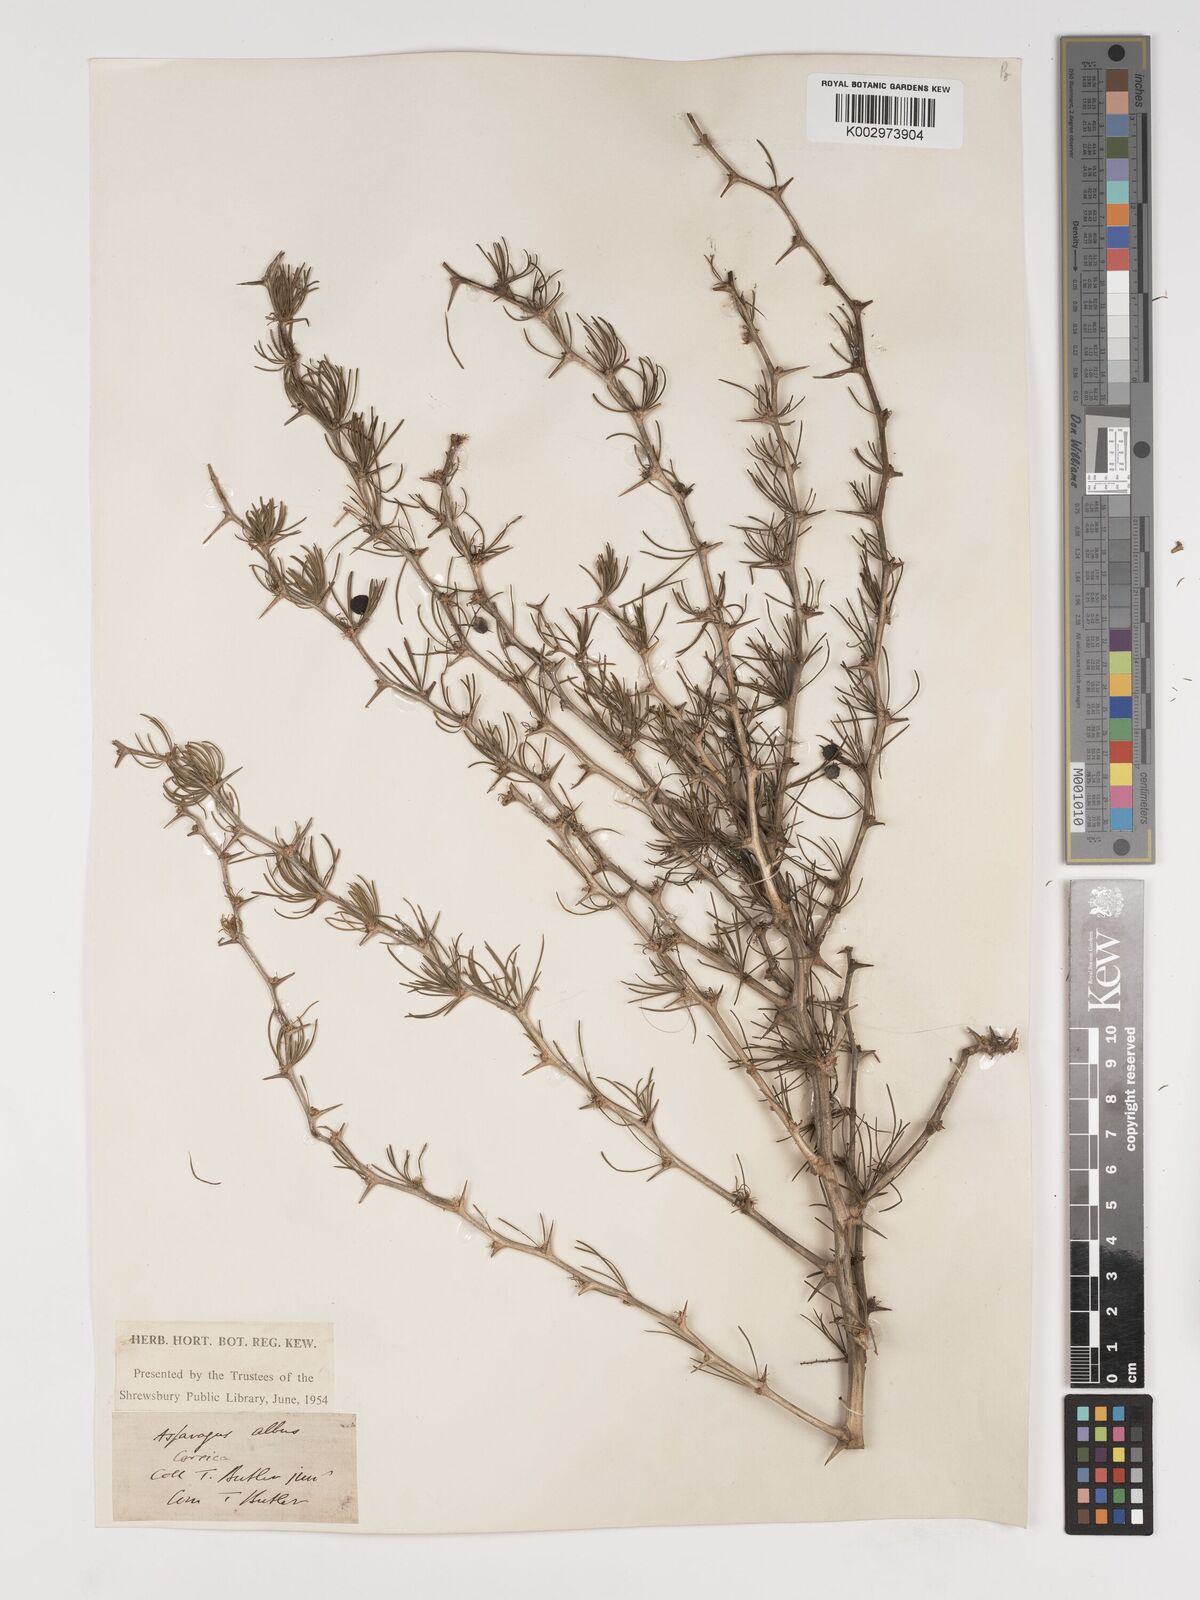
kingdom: Plantae
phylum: Tracheophyta
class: Liliopsida
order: Asparagales
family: Asparagaceae
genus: Asparagus
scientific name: Asparagus albus
